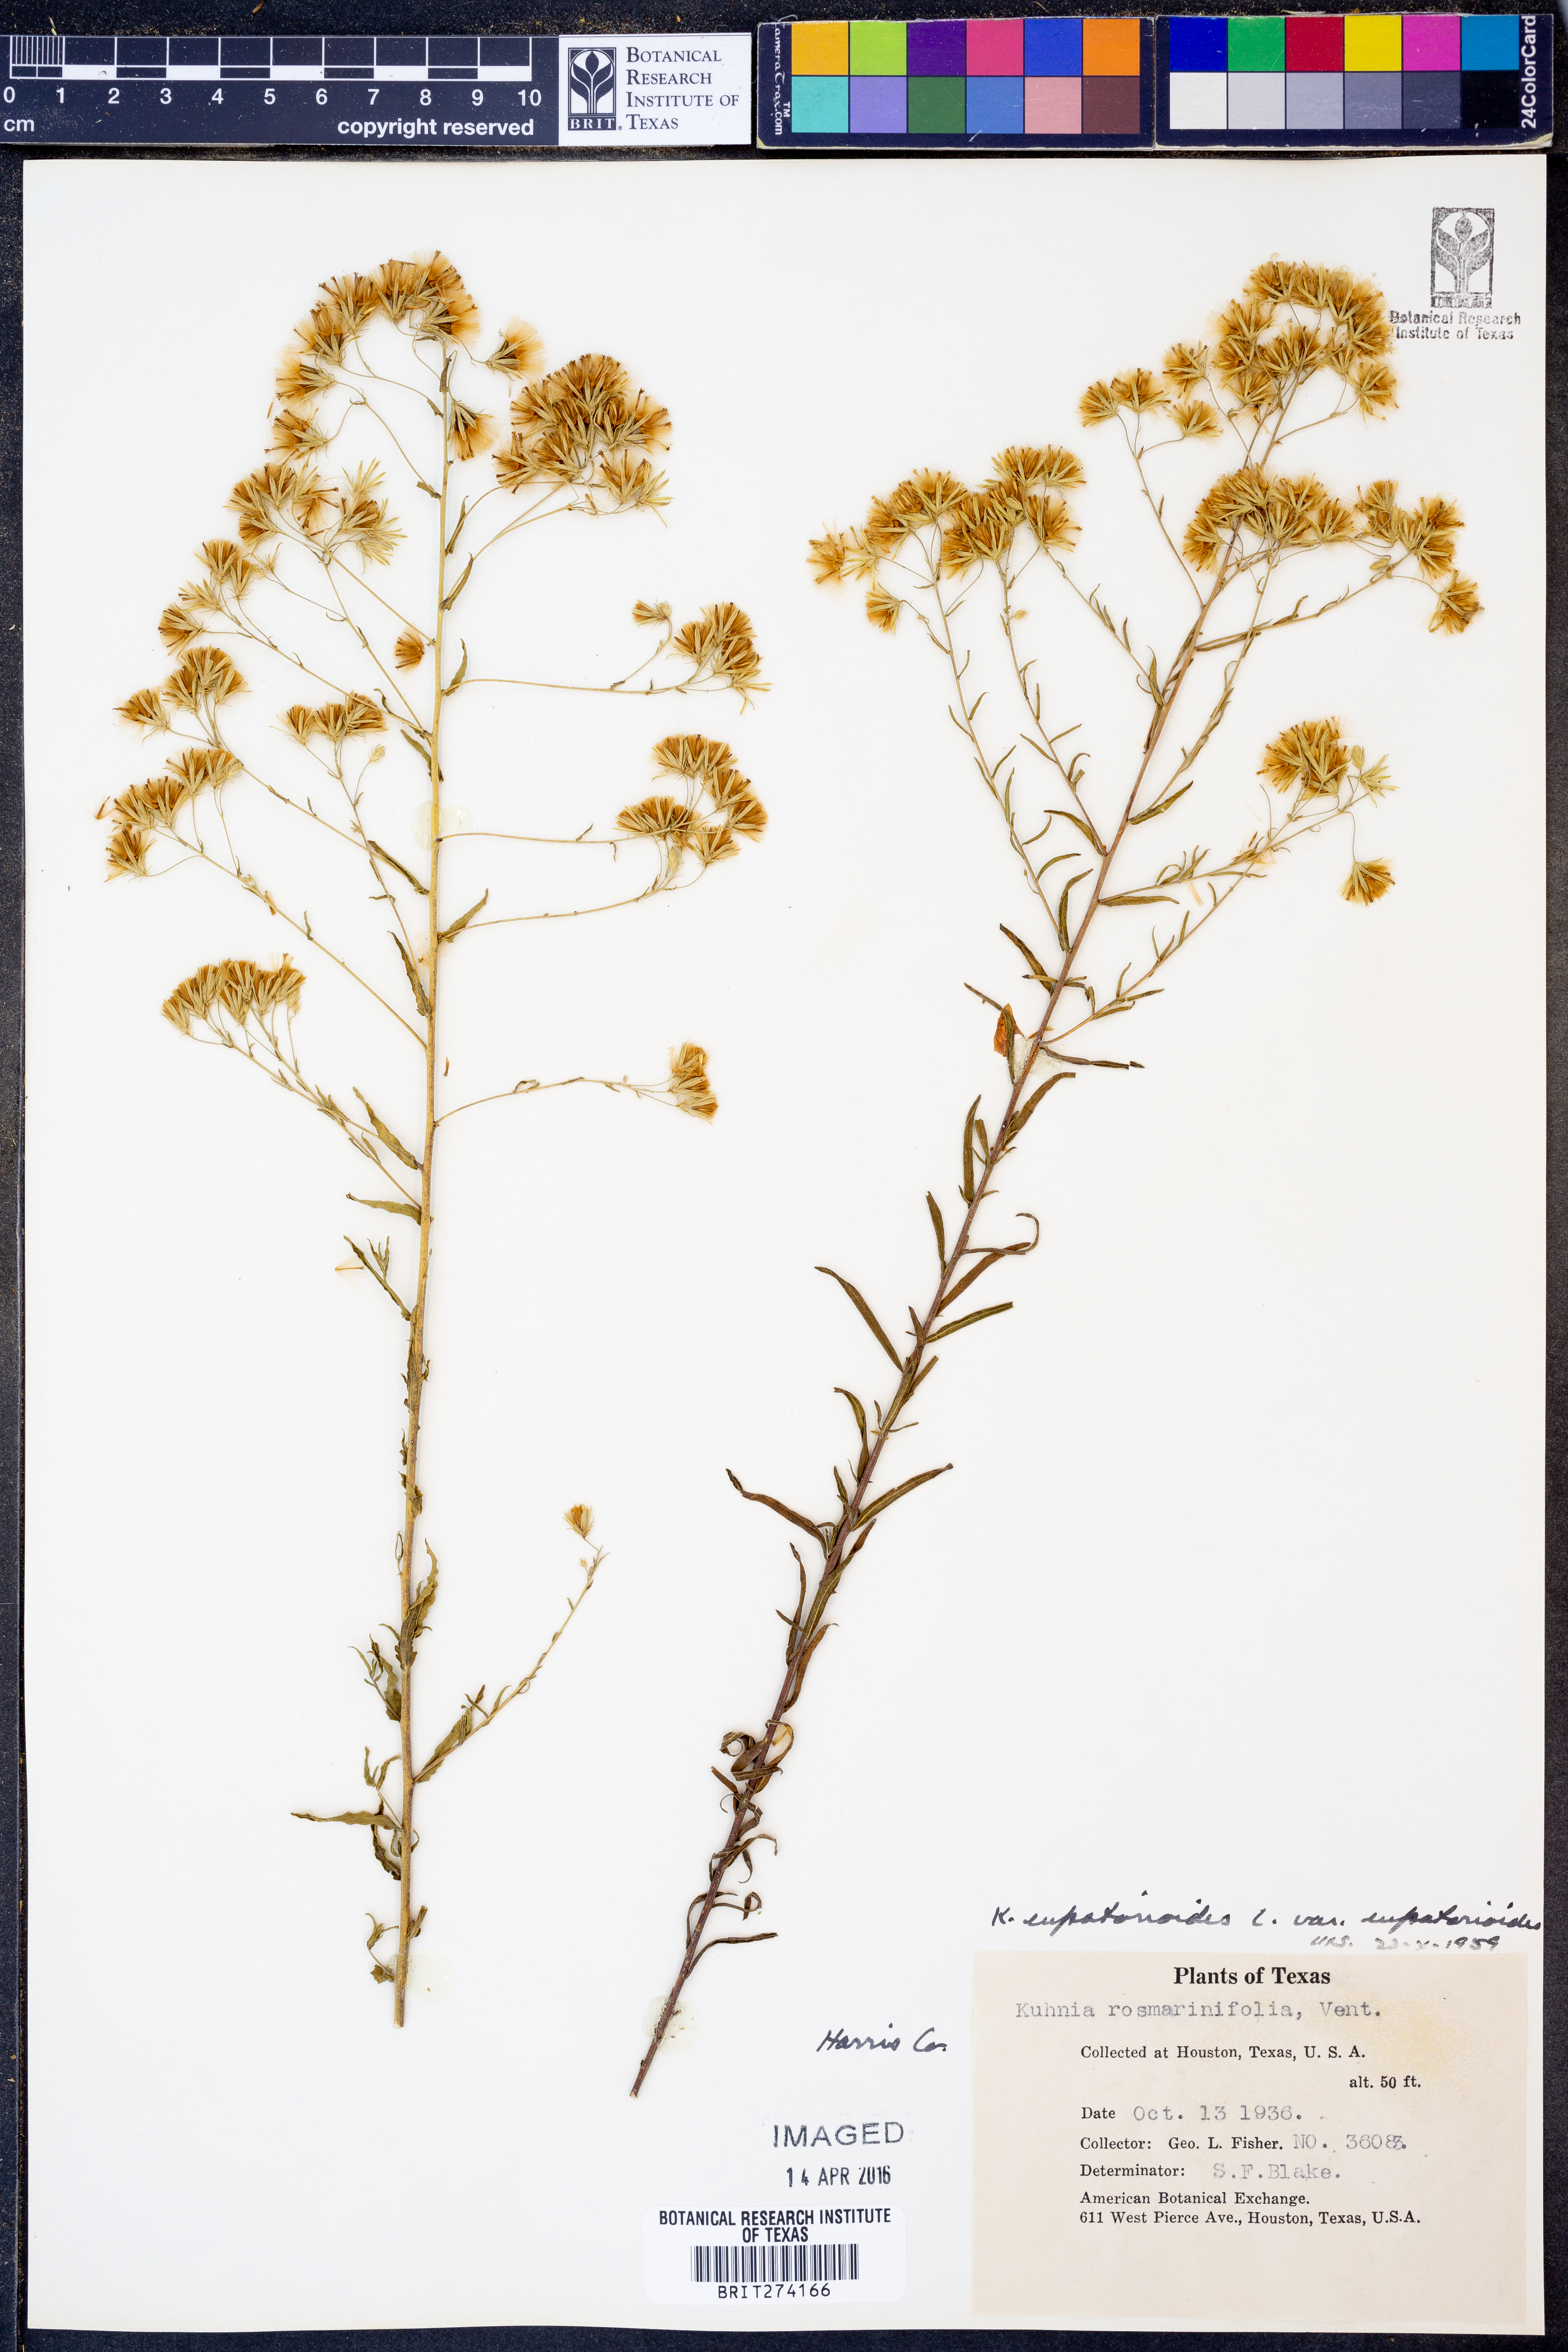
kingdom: Plantae
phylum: Tracheophyta
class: Magnoliopsida
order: Asterales
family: Asteraceae
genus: Brickellia
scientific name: Brickellia eupatorioides
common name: False boneset
